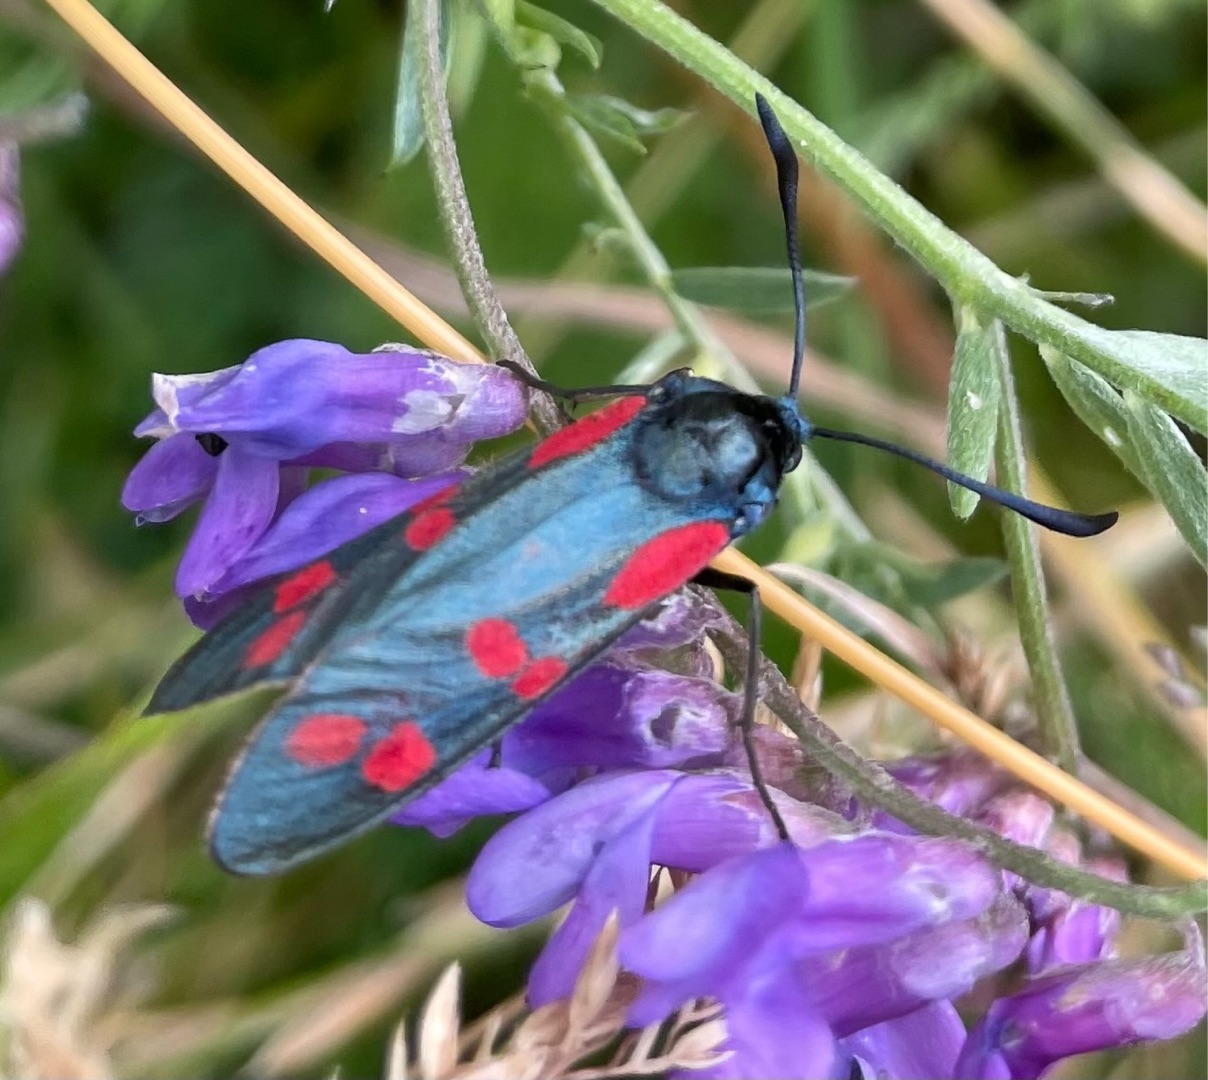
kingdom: Animalia
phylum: Arthropoda
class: Insecta
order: Lepidoptera
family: Zygaenidae
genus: Zygaena
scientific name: Zygaena filipendulae
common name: Seksplettet køllesværmer
